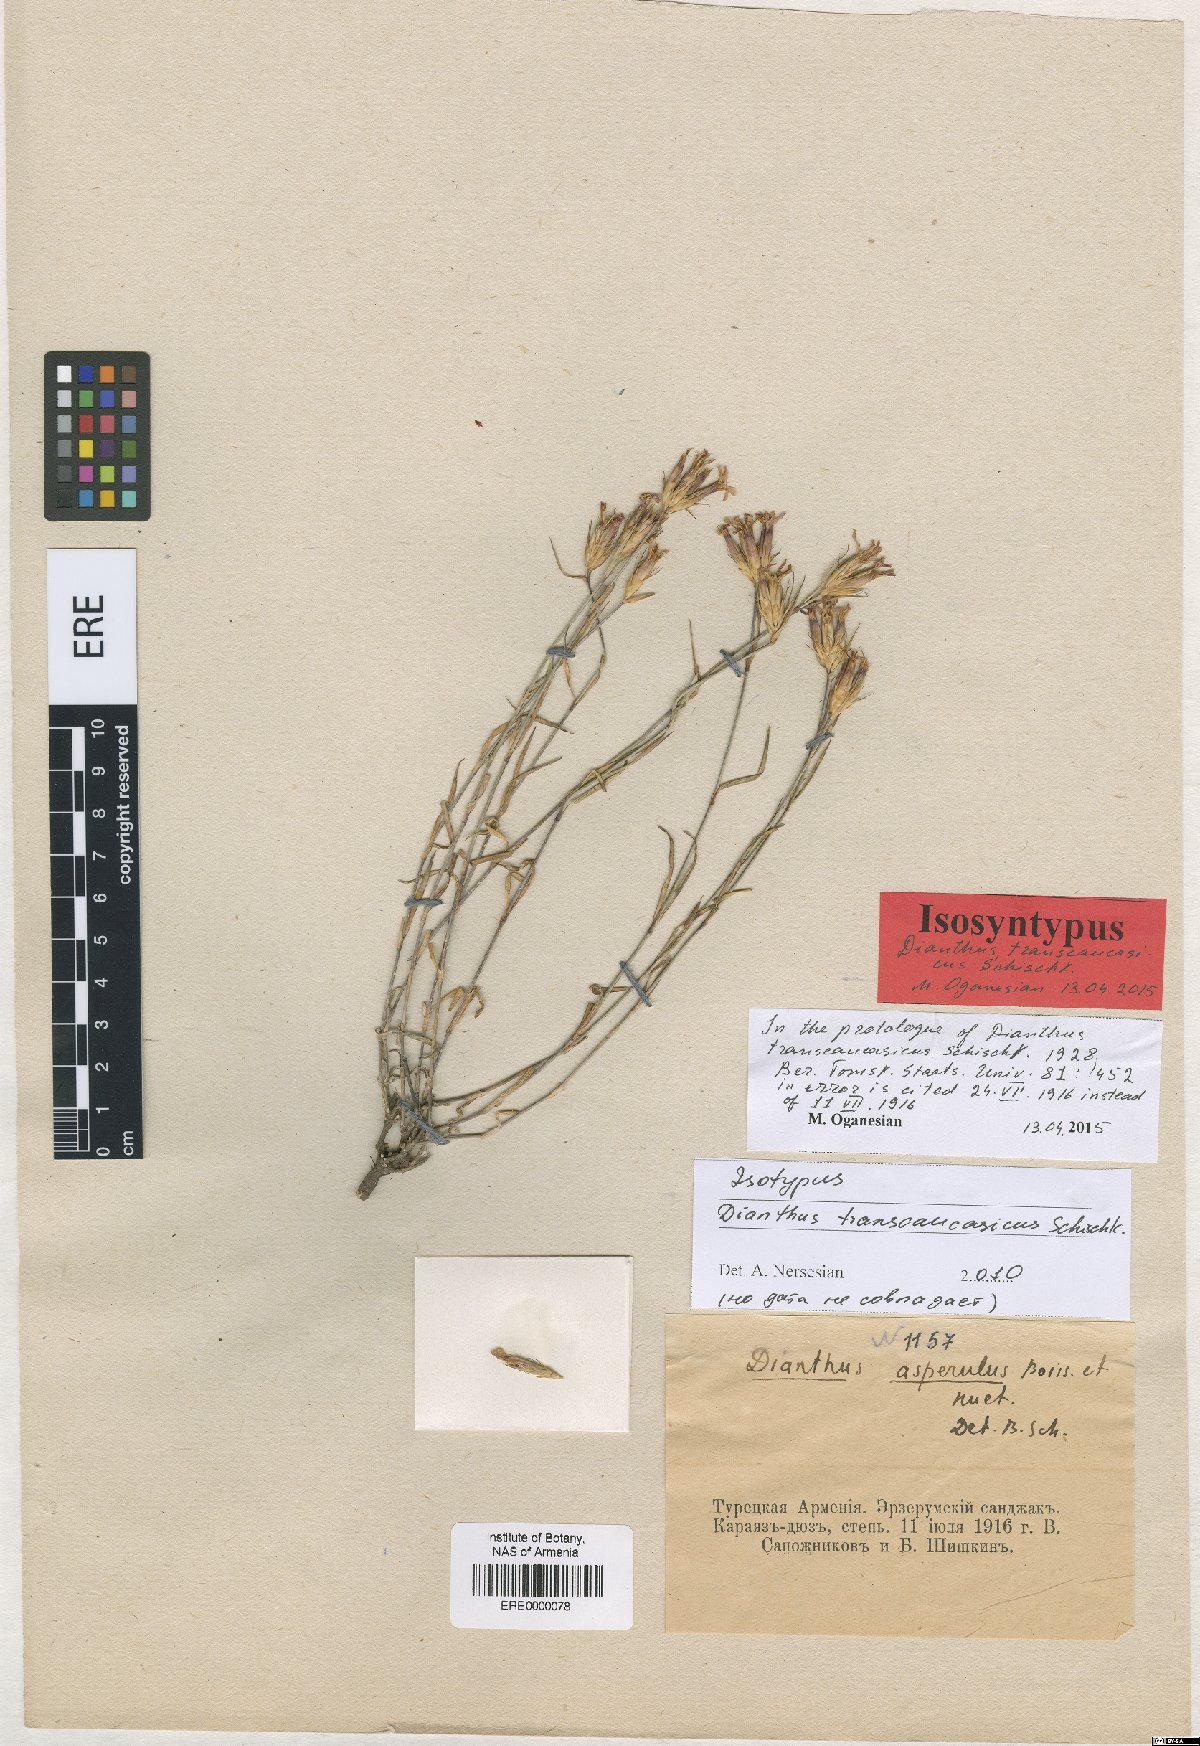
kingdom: Plantae
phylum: Tracheophyta
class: Magnoliopsida
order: Caryophyllales
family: Caryophyllaceae
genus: Dianthus
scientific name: Dianthus masmenaeus
